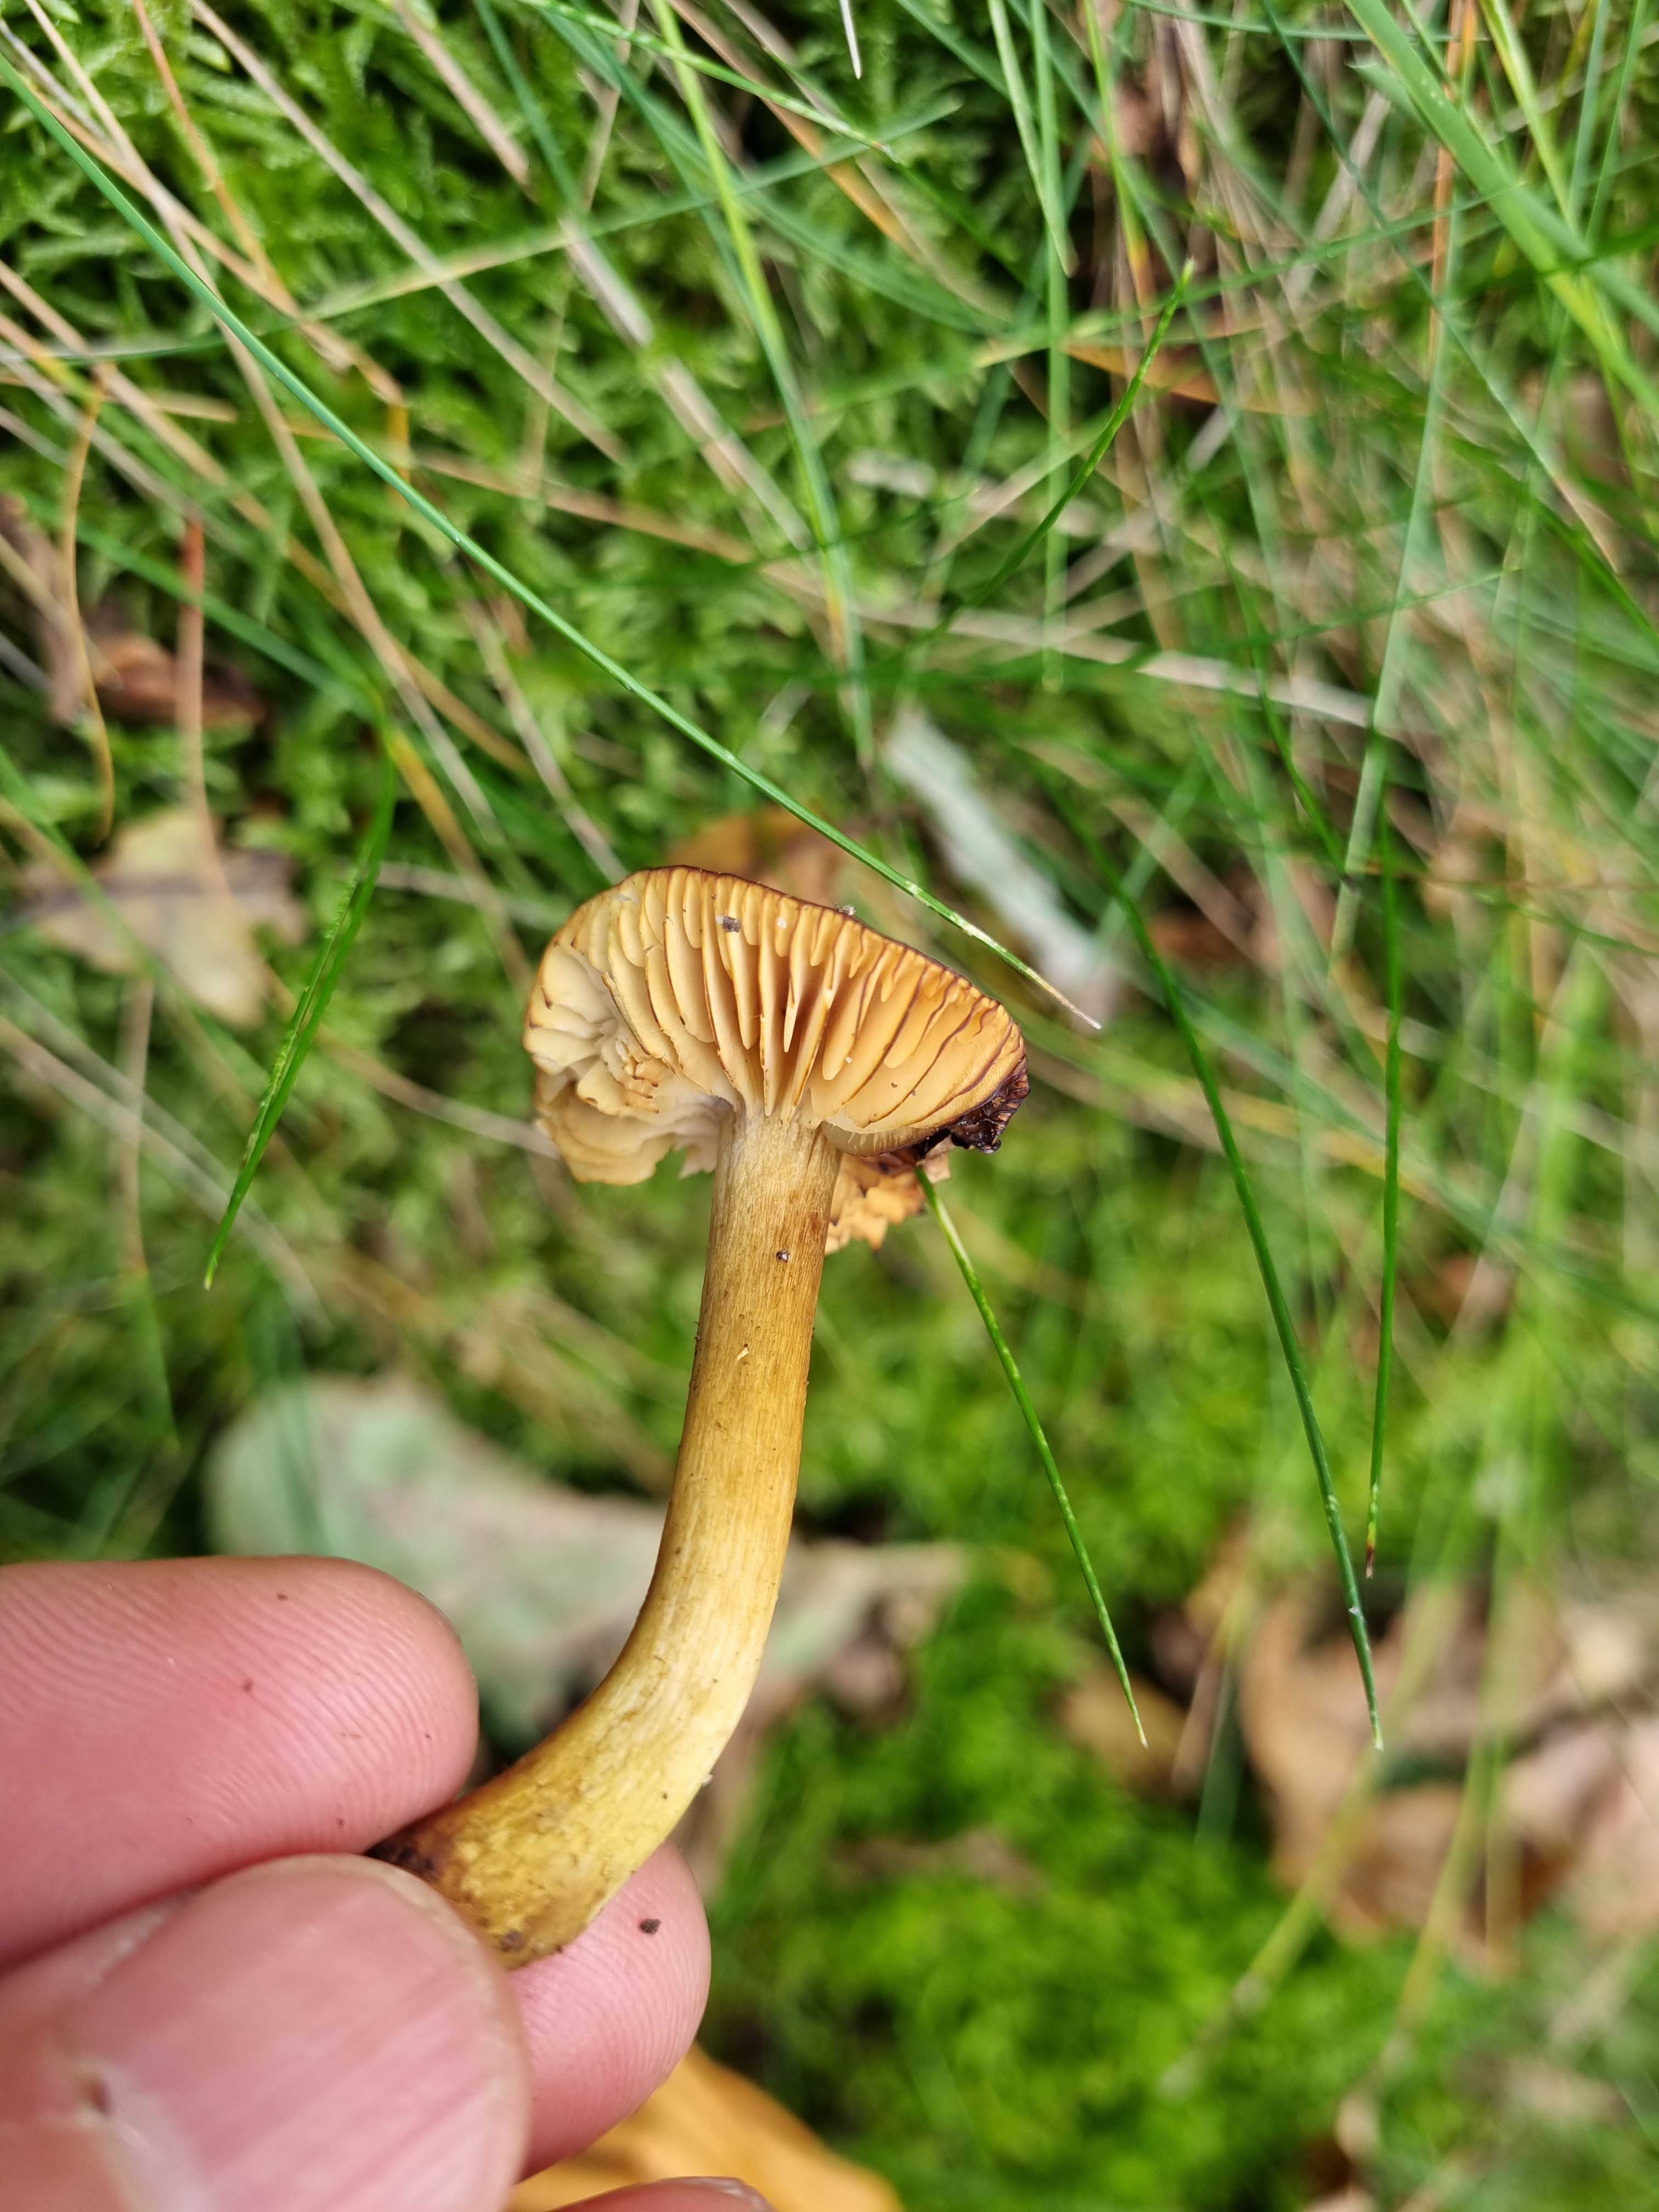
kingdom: Fungi
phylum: Basidiomycota
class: Agaricomycetes
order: Agaricales
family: Tricholomataceae
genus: Tricholoma
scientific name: Tricholoma sulphureum
